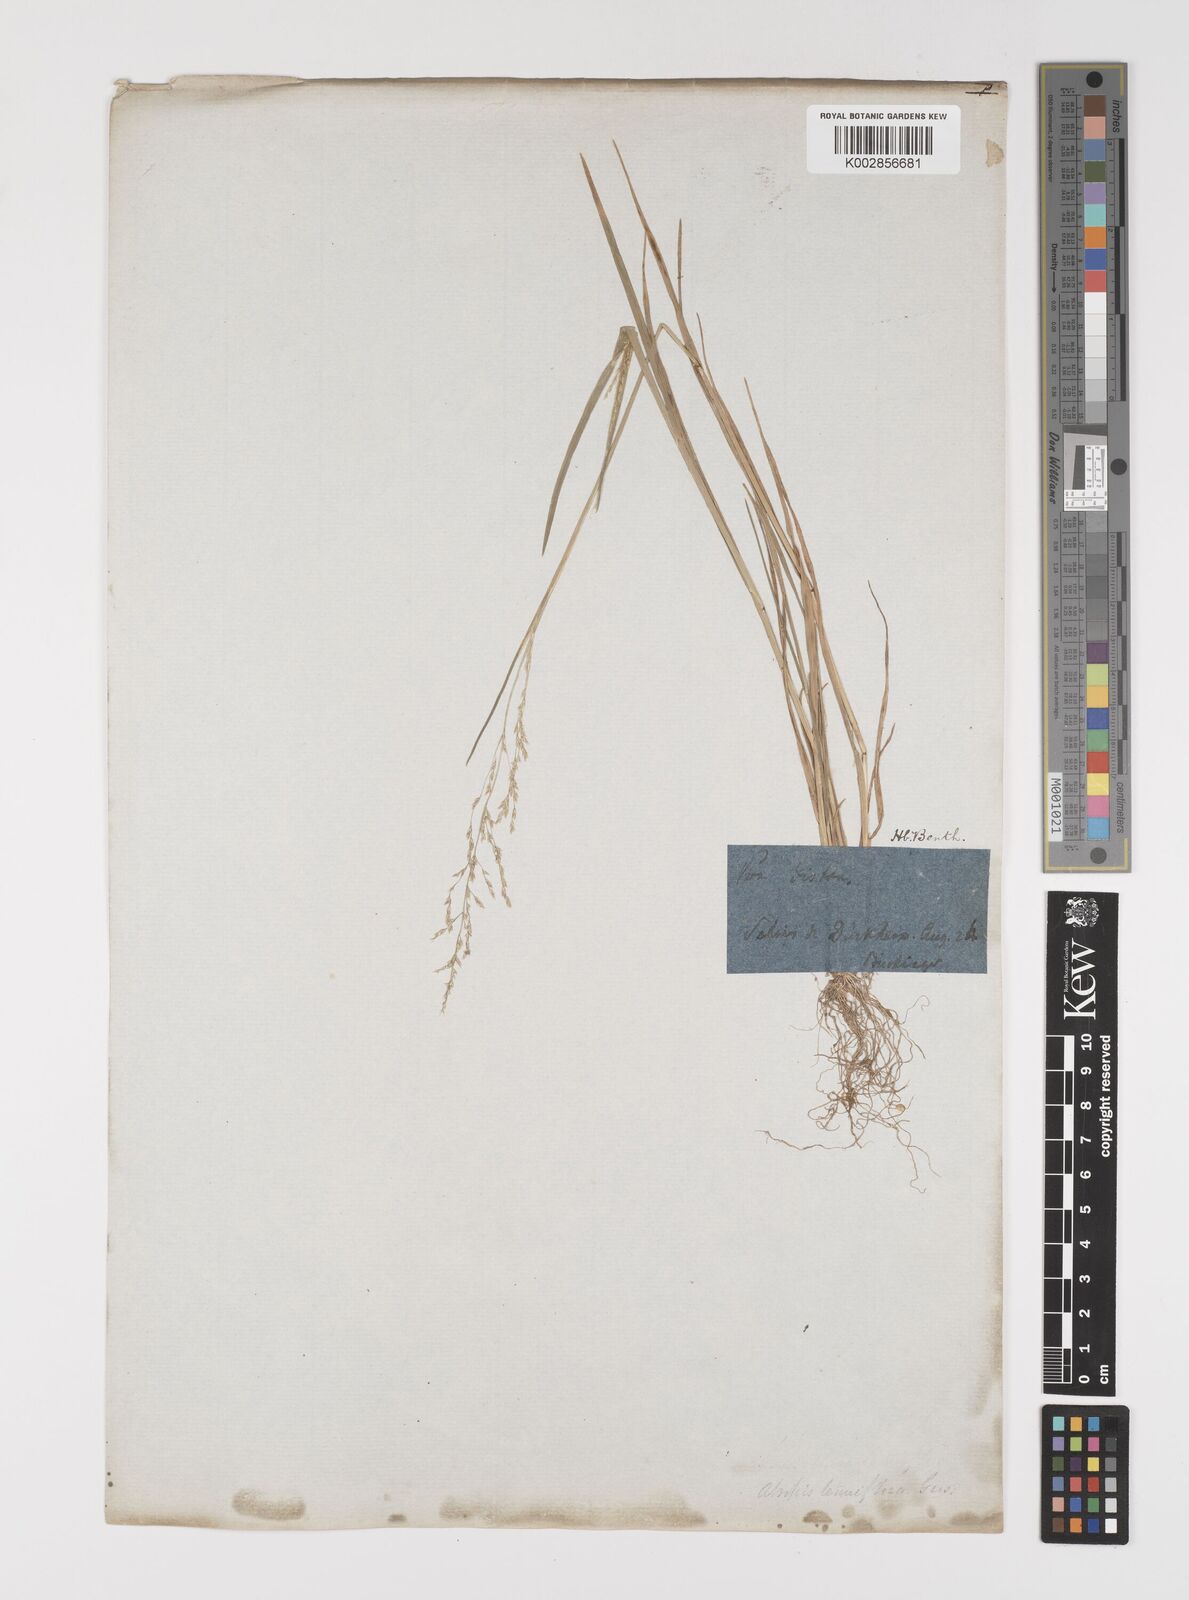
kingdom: Plantae
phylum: Tracheophyta
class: Liliopsida
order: Poales
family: Poaceae
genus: Puccinellia
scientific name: Puccinellia
